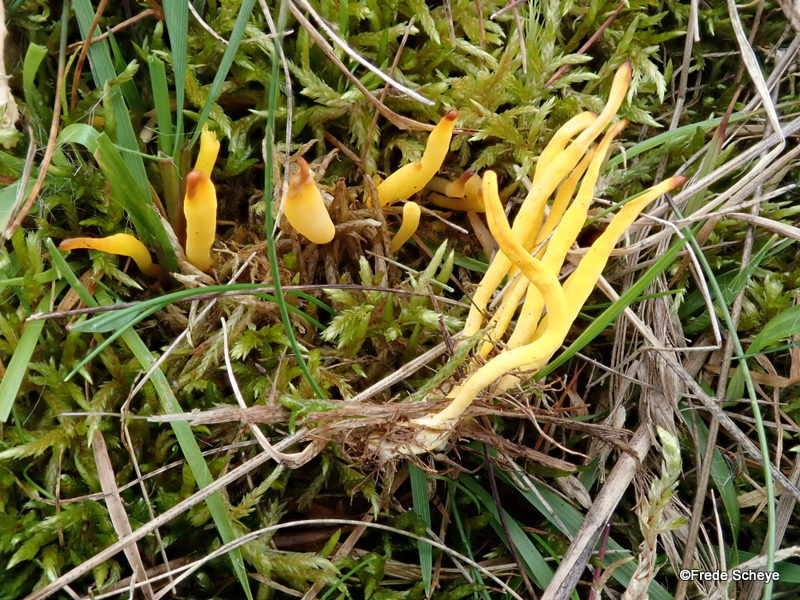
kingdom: Fungi
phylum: Basidiomycota
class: Agaricomycetes
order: Agaricales
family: Clavariaceae
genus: Clavulinopsis
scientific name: Clavulinopsis helvola
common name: orangegul køllesvamp
